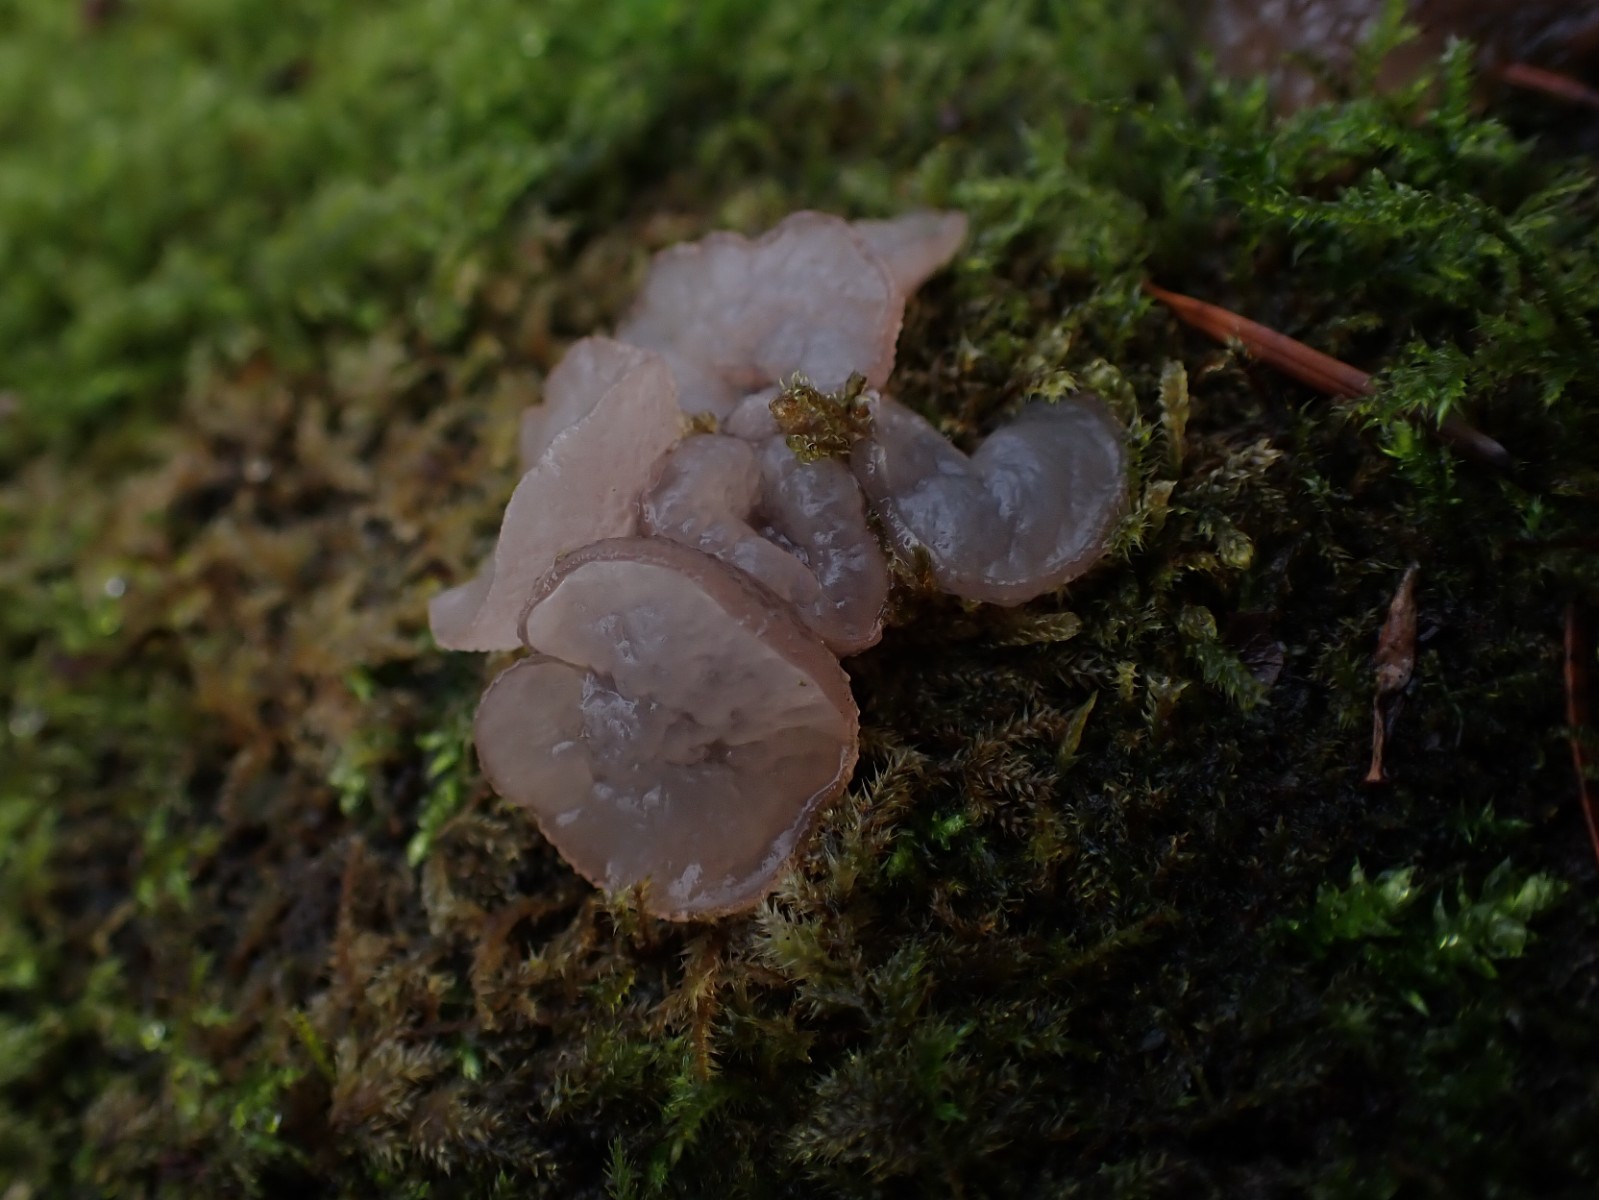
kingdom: Fungi
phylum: Ascomycota
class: Leotiomycetes
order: Helotiales
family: Gelatinodiscaceae
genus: Neobulgaria
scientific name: Neobulgaria pura
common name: bleg bævreskive
